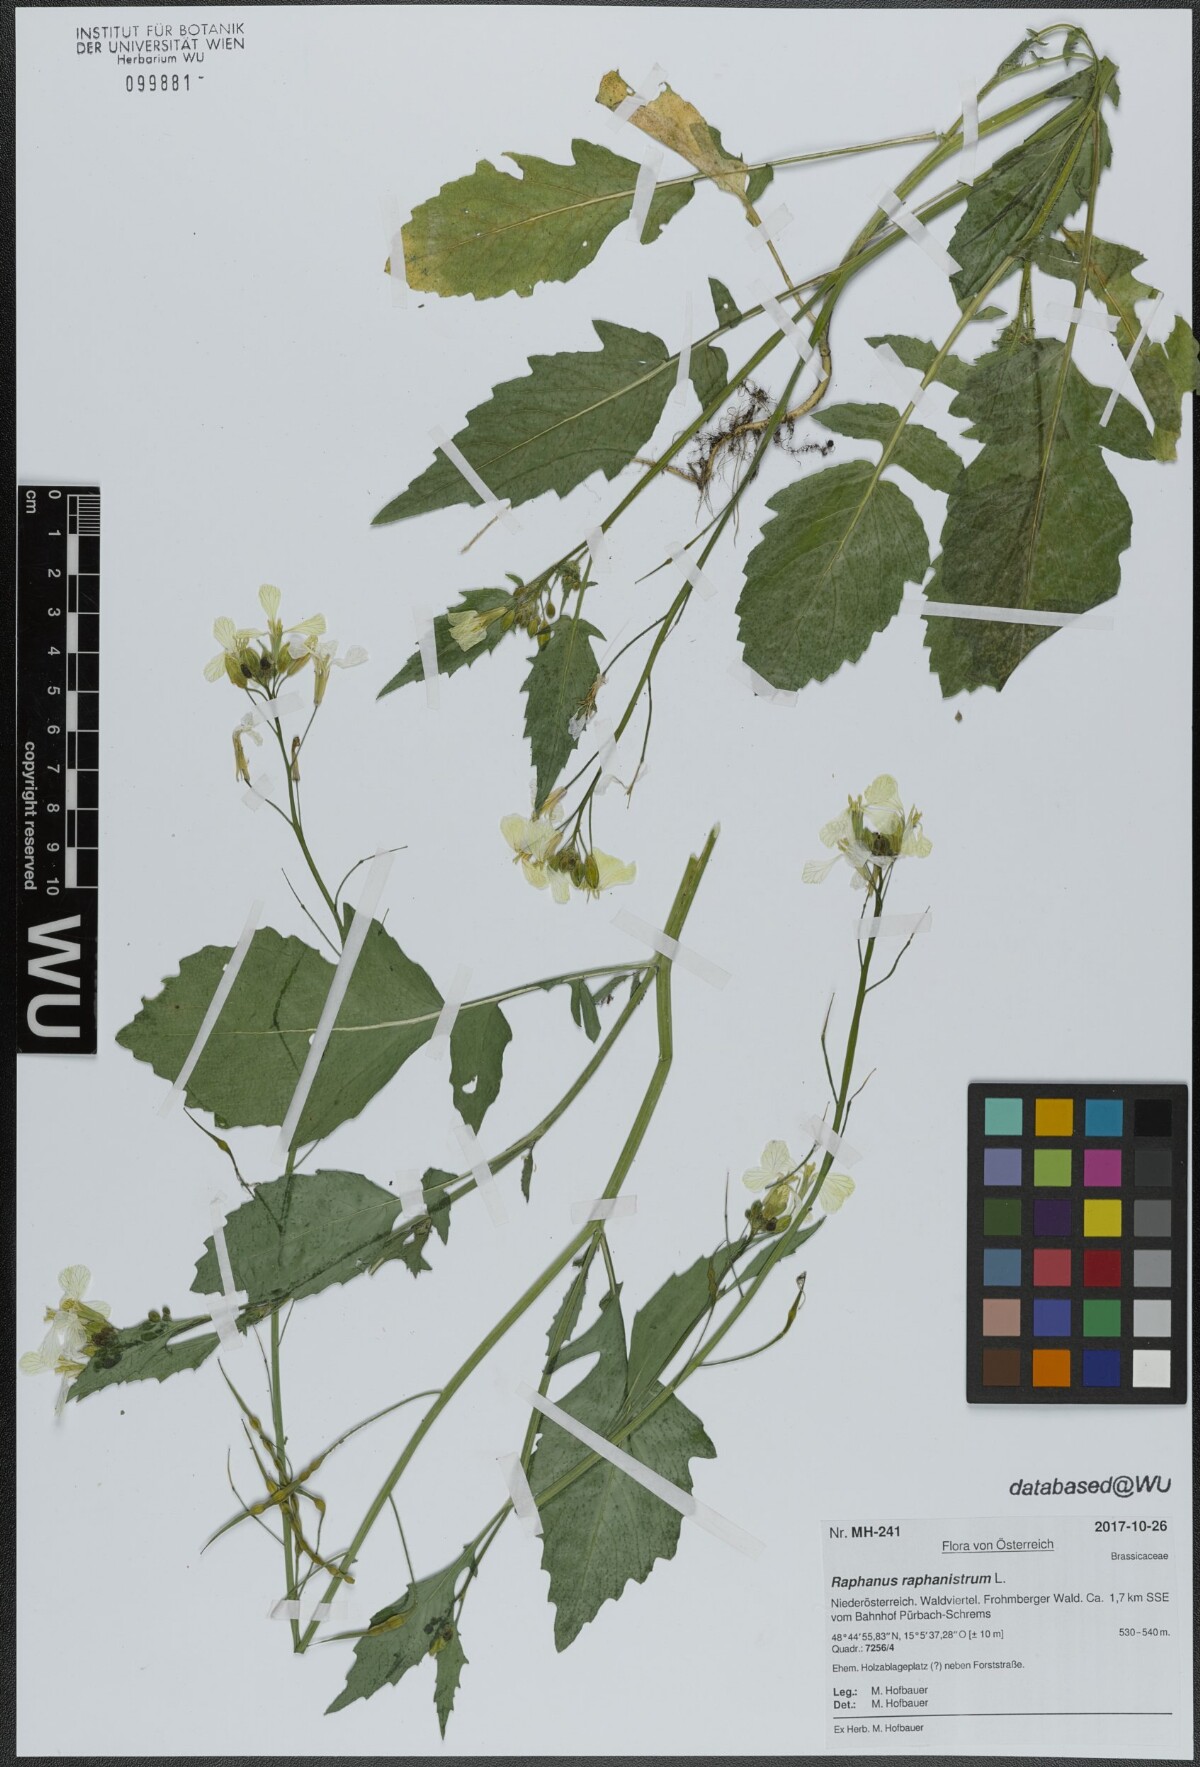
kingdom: Plantae
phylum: Tracheophyta
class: Magnoliopsida
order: Brassicales
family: Brassicaceae
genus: Raphanus
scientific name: Raphanus raphanistrum
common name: Wild radish
